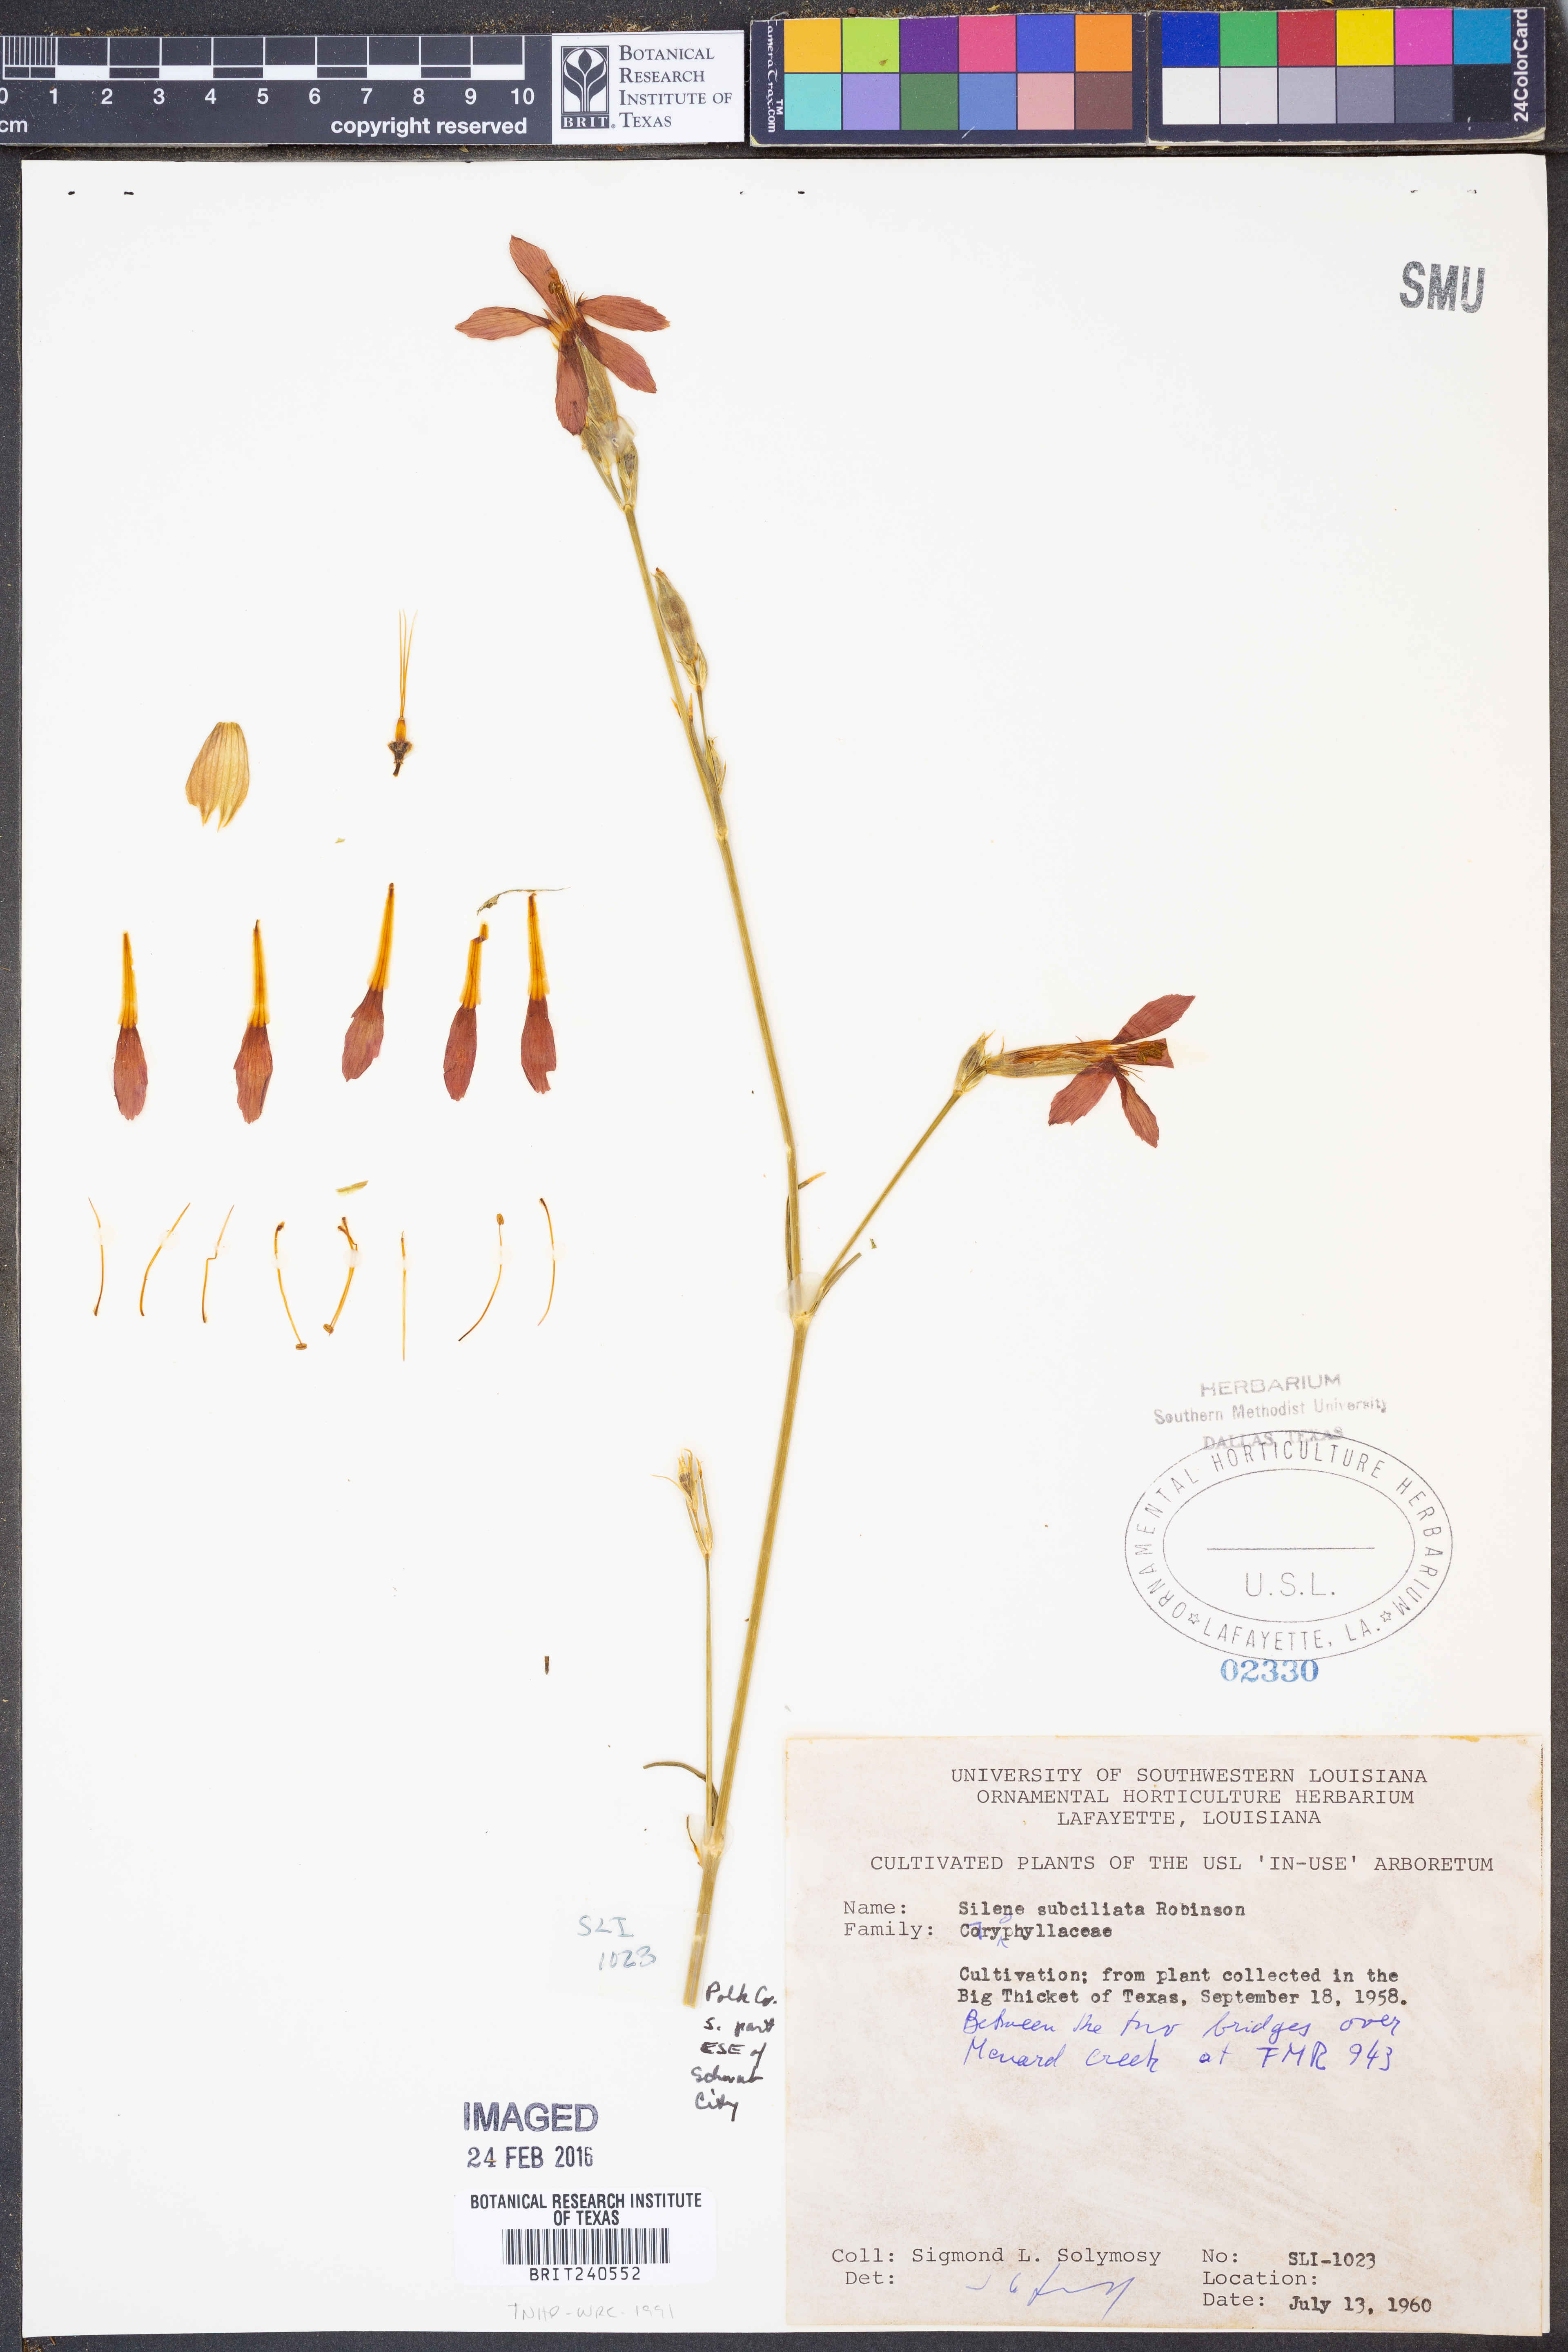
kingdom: Plantae
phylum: Tracheophyta
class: Magnoliopsida
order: Caryophyllales
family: Caryophyllaceae
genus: Silene
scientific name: Silene subciliata
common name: Prairie fire-pink
